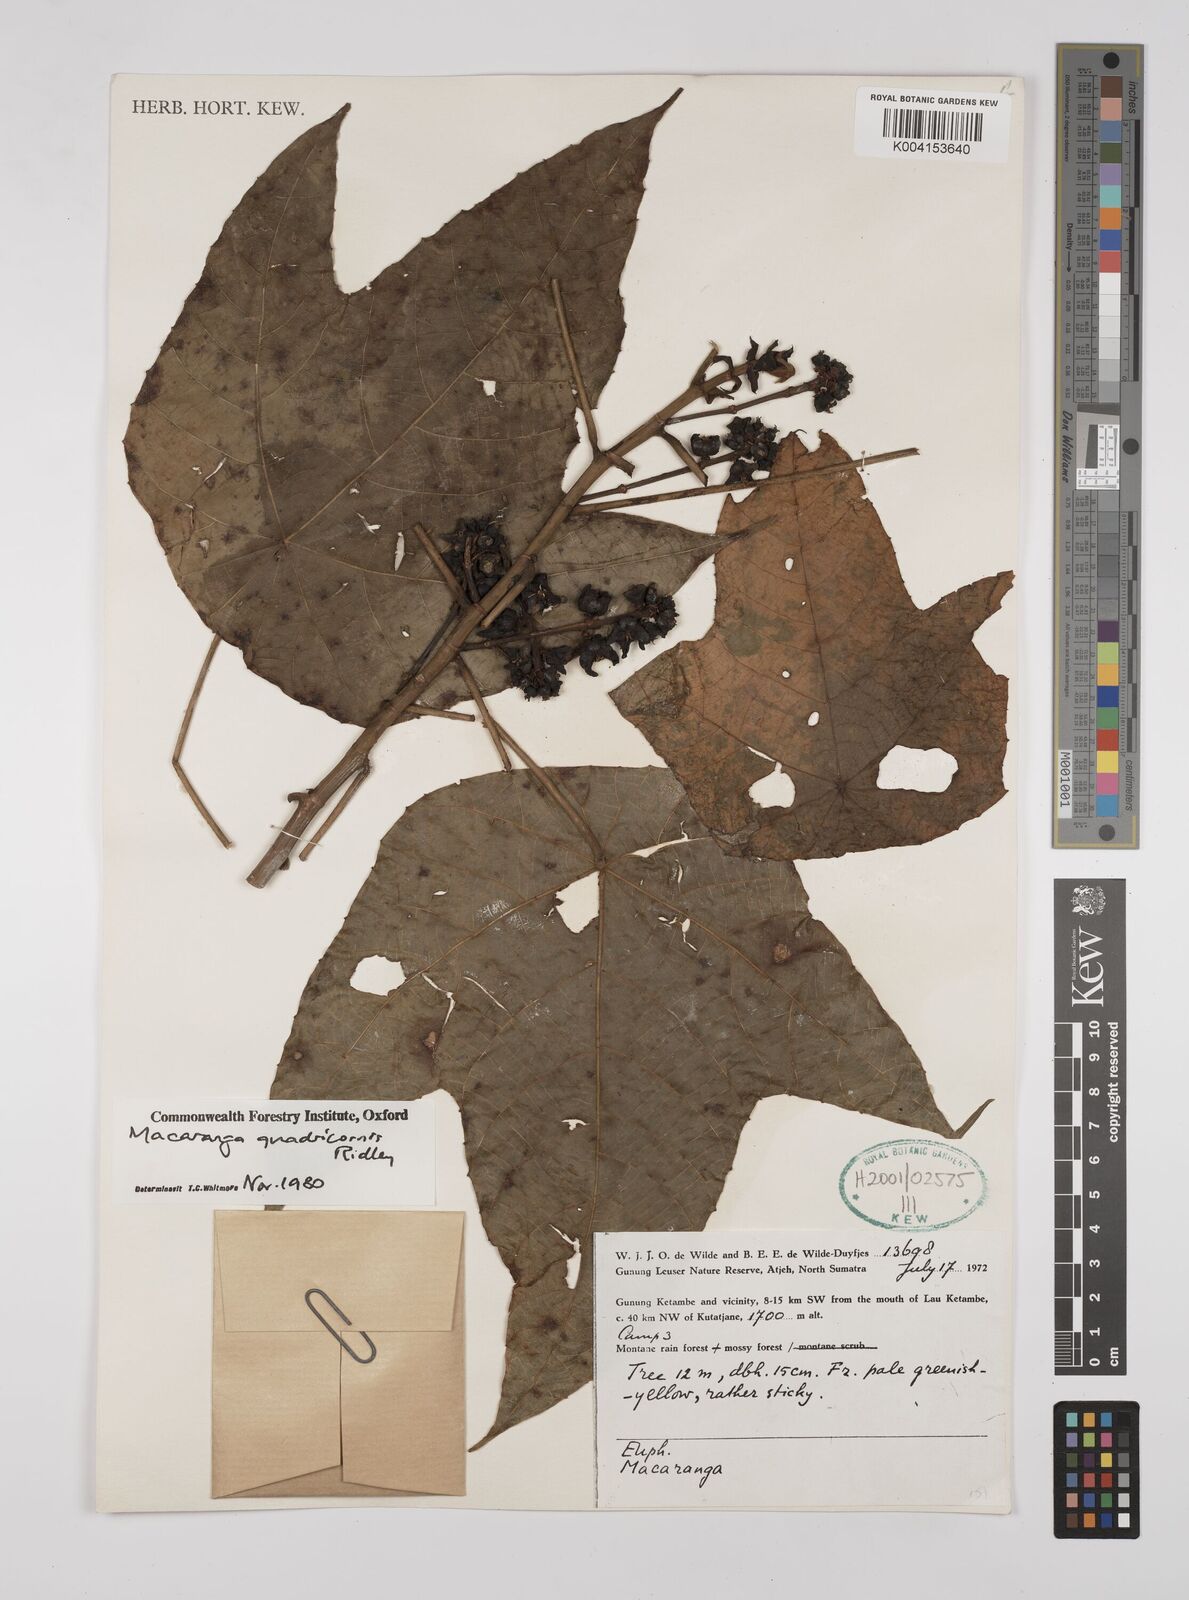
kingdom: Plantae
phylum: Tracheophyta
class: Magnoliopsida
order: Malpighiales
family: Euphorbiaceae
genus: Macaranga
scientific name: Macaranga triloba
